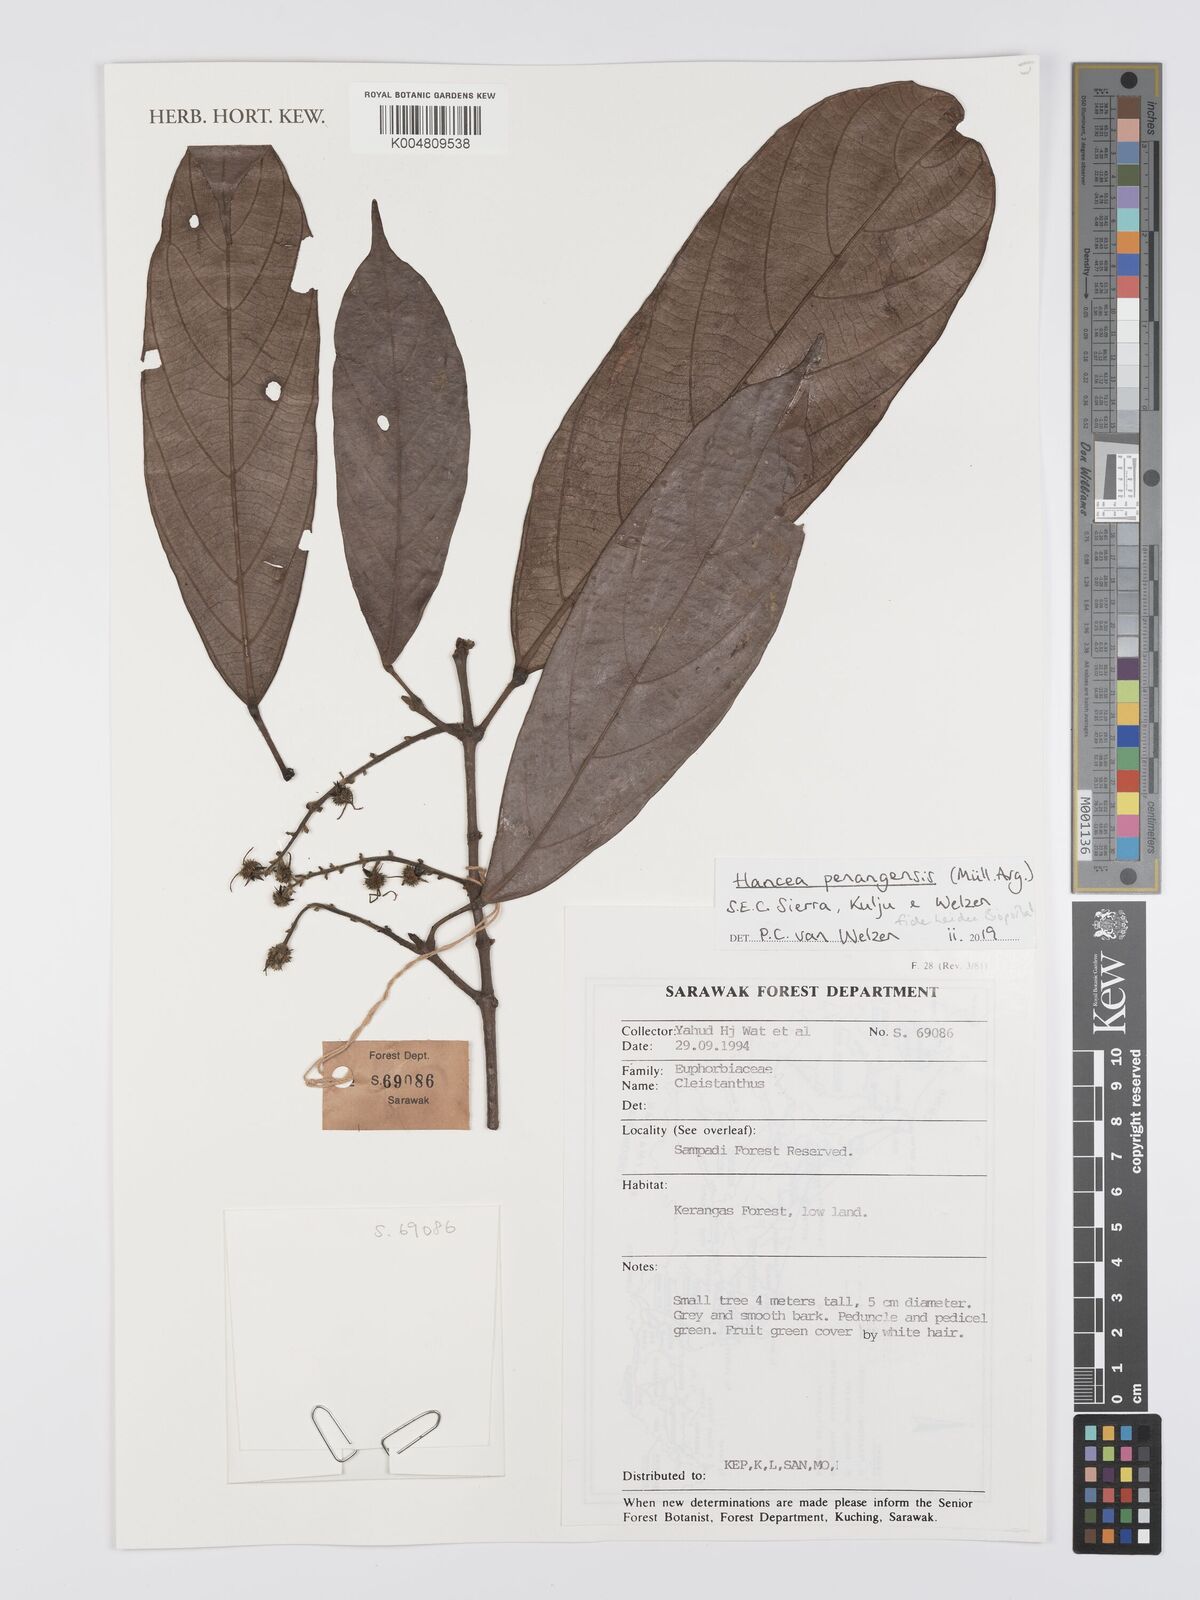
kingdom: Plantae
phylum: Tracheophyta
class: Magnoliopsida
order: Malpighiales
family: Euphorbiaceae
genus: Hancea
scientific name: Hancea penangensis
